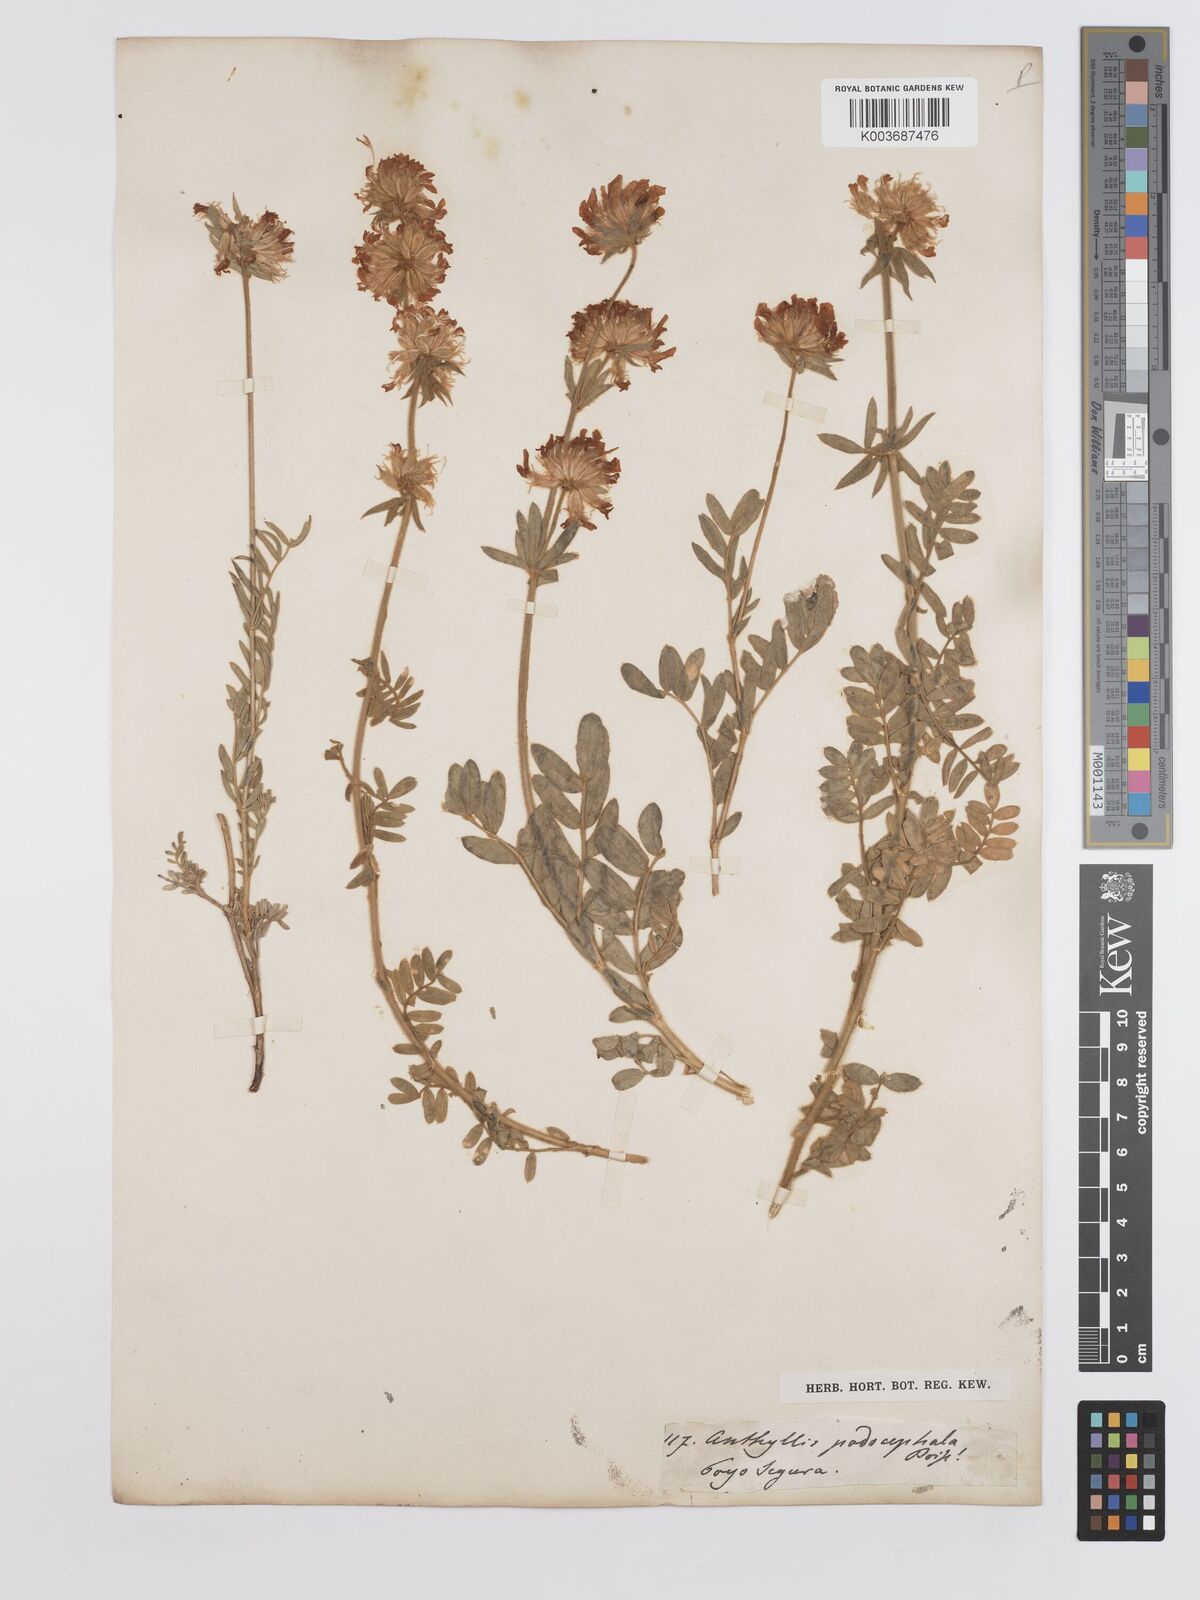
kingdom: Plantae
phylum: Tracheophyta
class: Magnoliopsida
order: Fabales
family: Fabaceae
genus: Anthyllis
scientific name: Anthyllis rupestris
